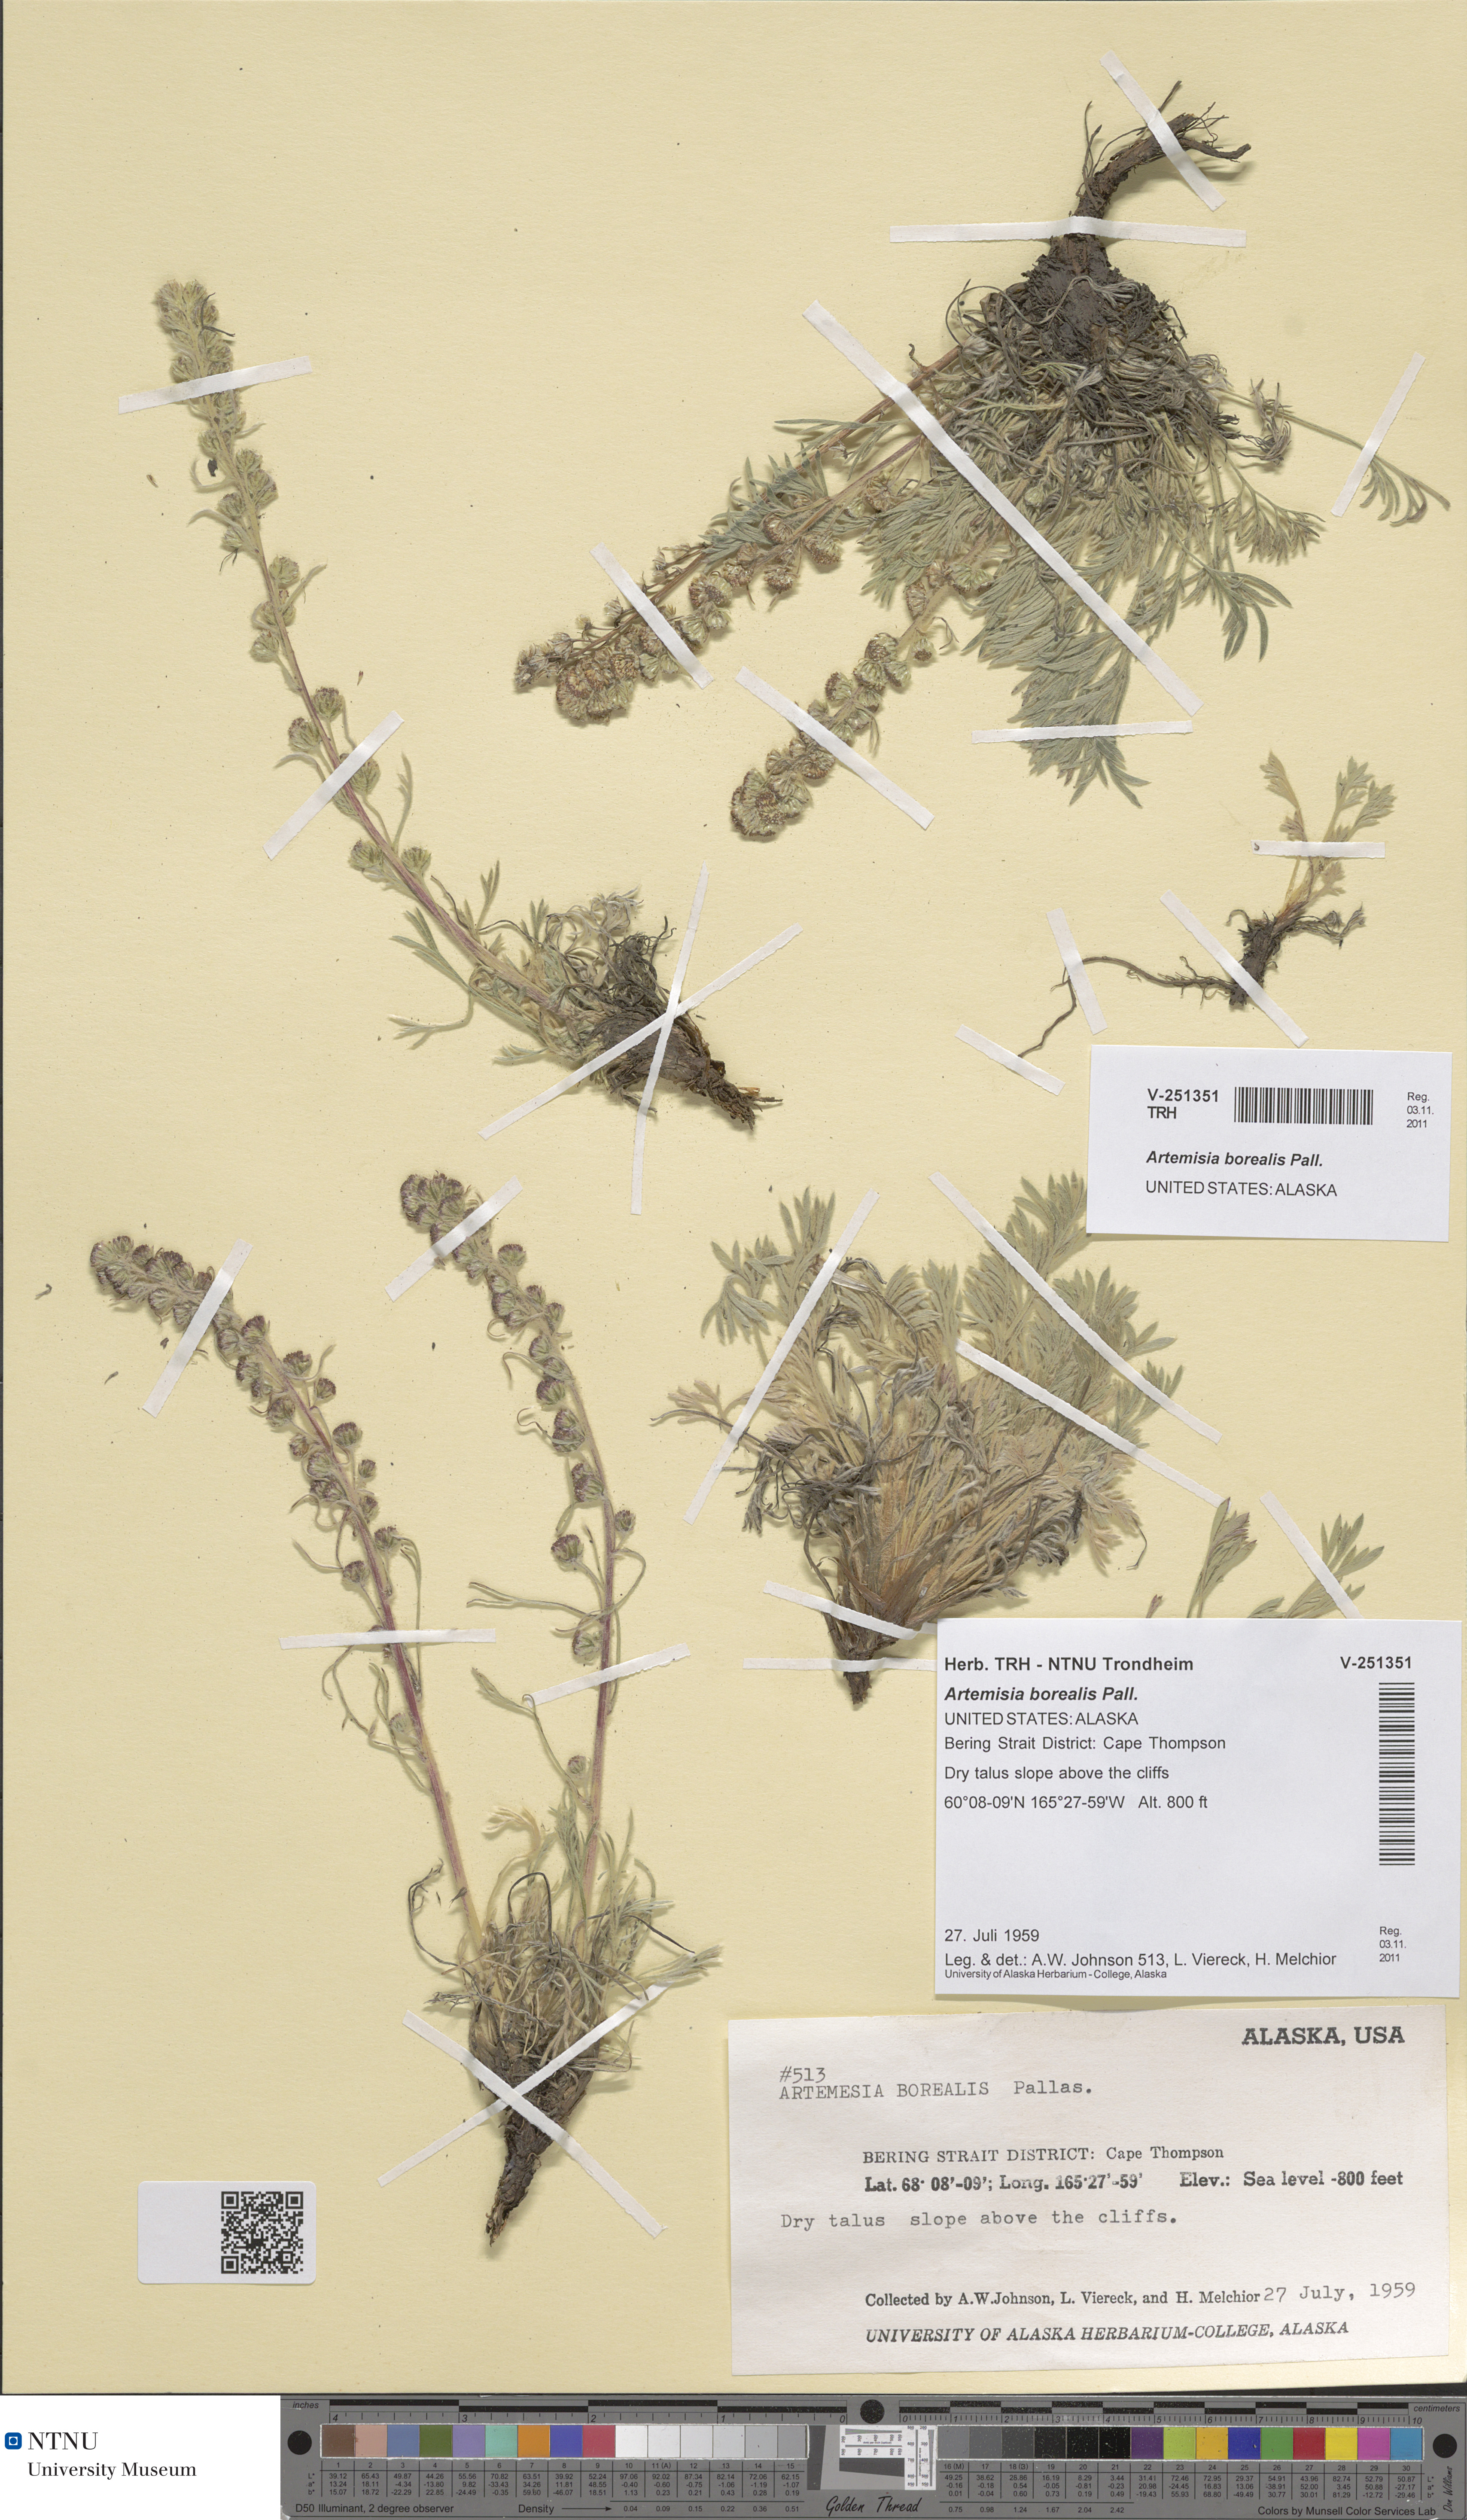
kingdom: Plantae
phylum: Tracheophyta
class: Magnoliopsida
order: Asterales
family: Asteraceae
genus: Artemisia
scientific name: Artemisia borealis
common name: Boreal sage
